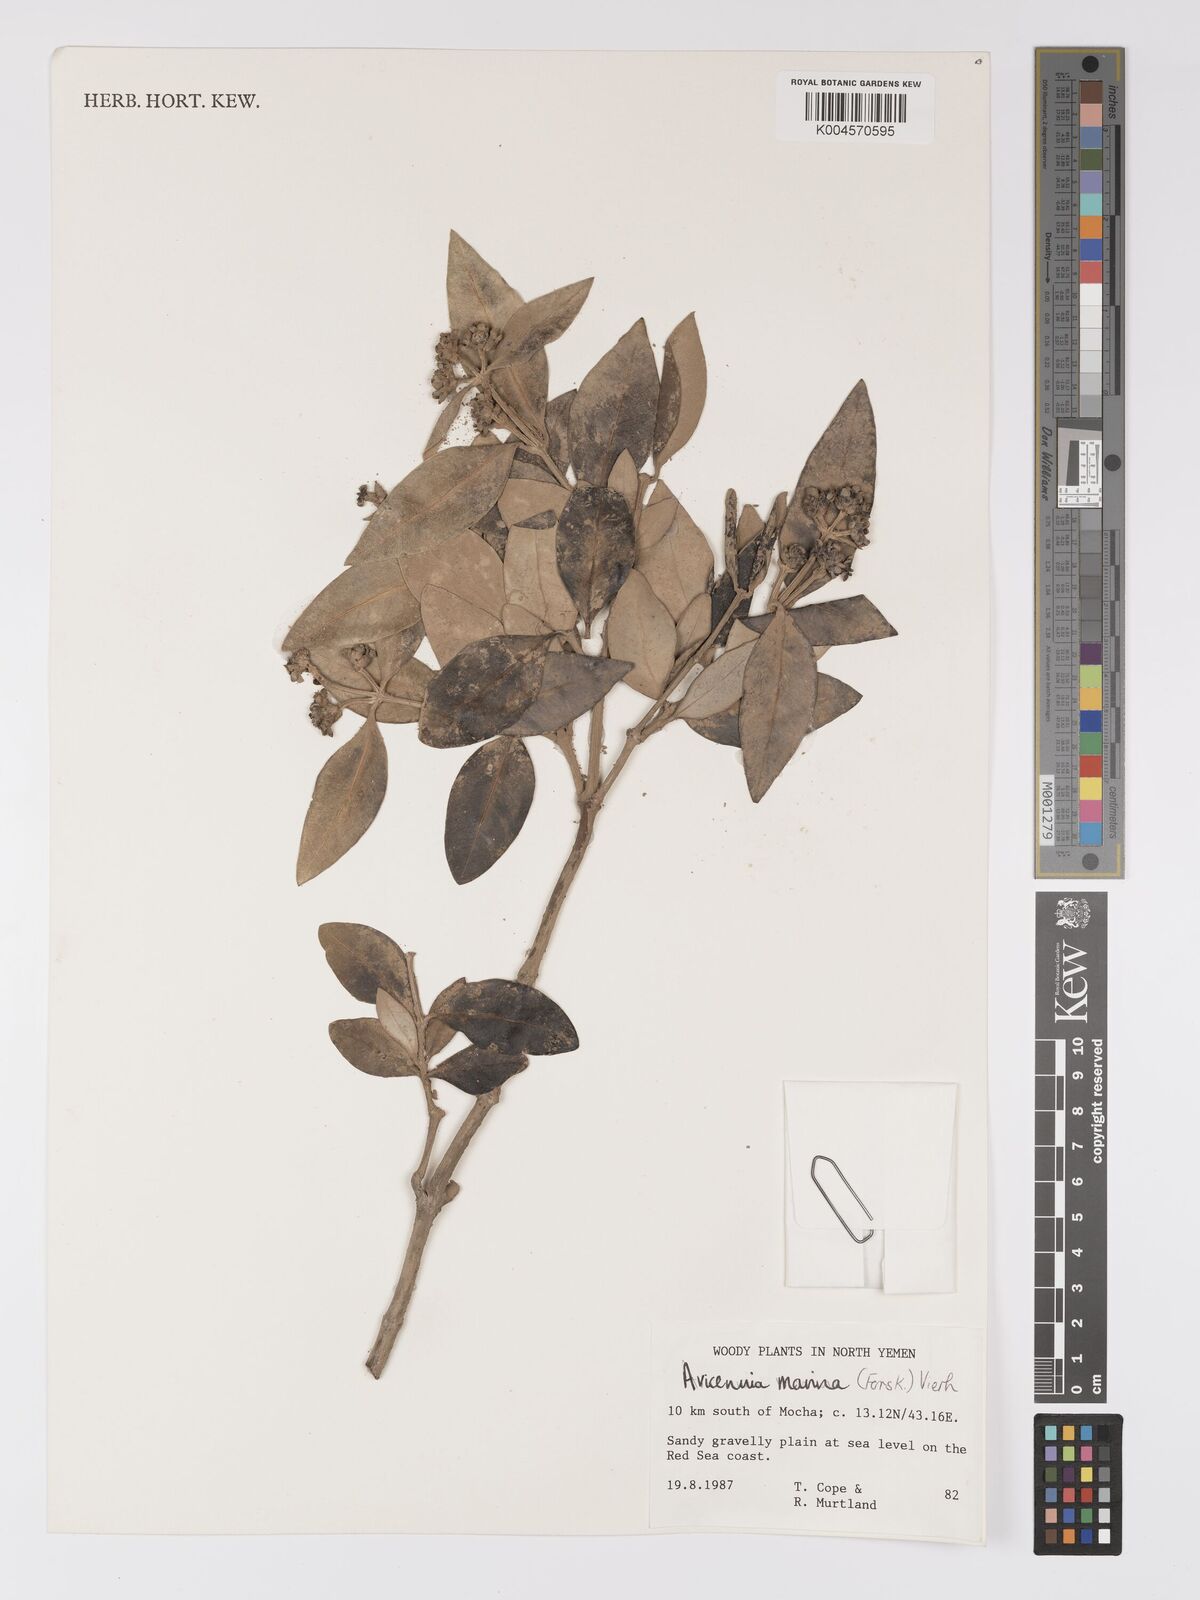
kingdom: Plantae
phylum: Tracheophyta
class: Magnoliopsida
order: Lamiales
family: Acanthaceae
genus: Avicennia
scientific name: Avicennia marina
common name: Gray mangrove
